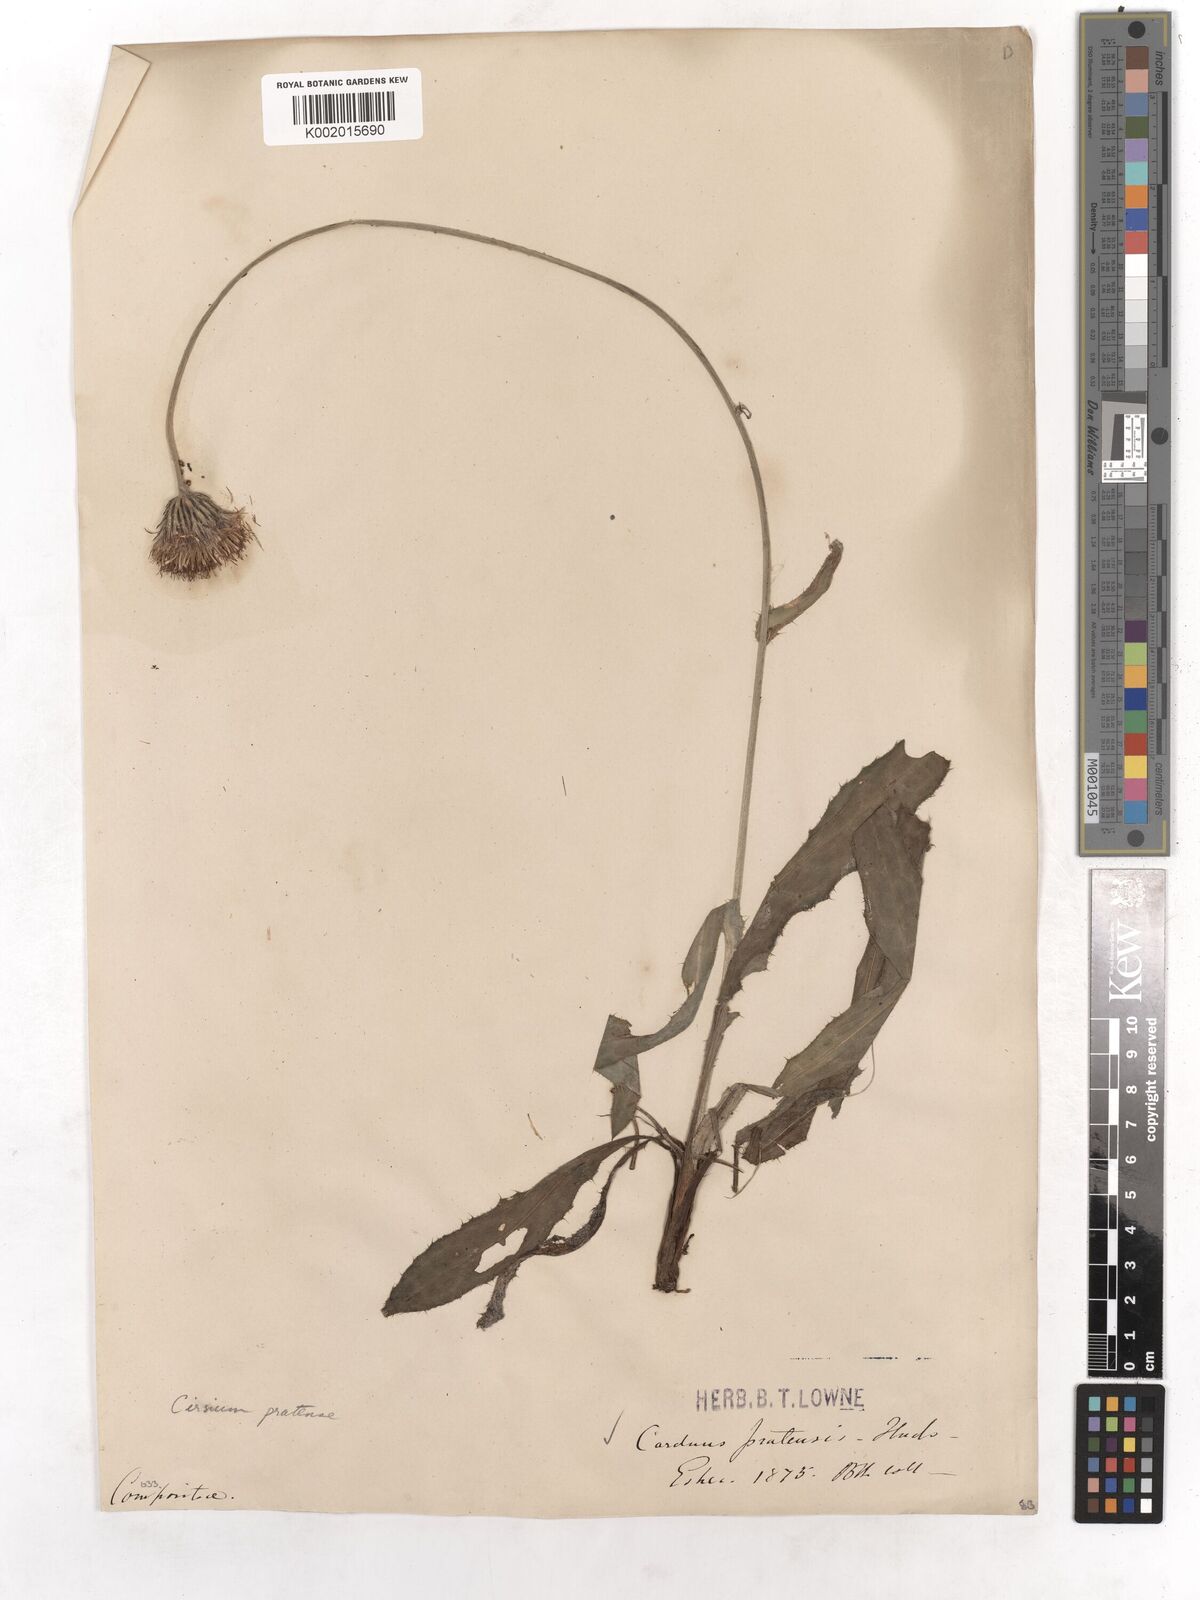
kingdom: Plantae
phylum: Tracheophyta
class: Magnoliopsida
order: Asterales
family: Asteraceae
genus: Cirsium
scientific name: Cirsium dissectum
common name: Meadow thistle
